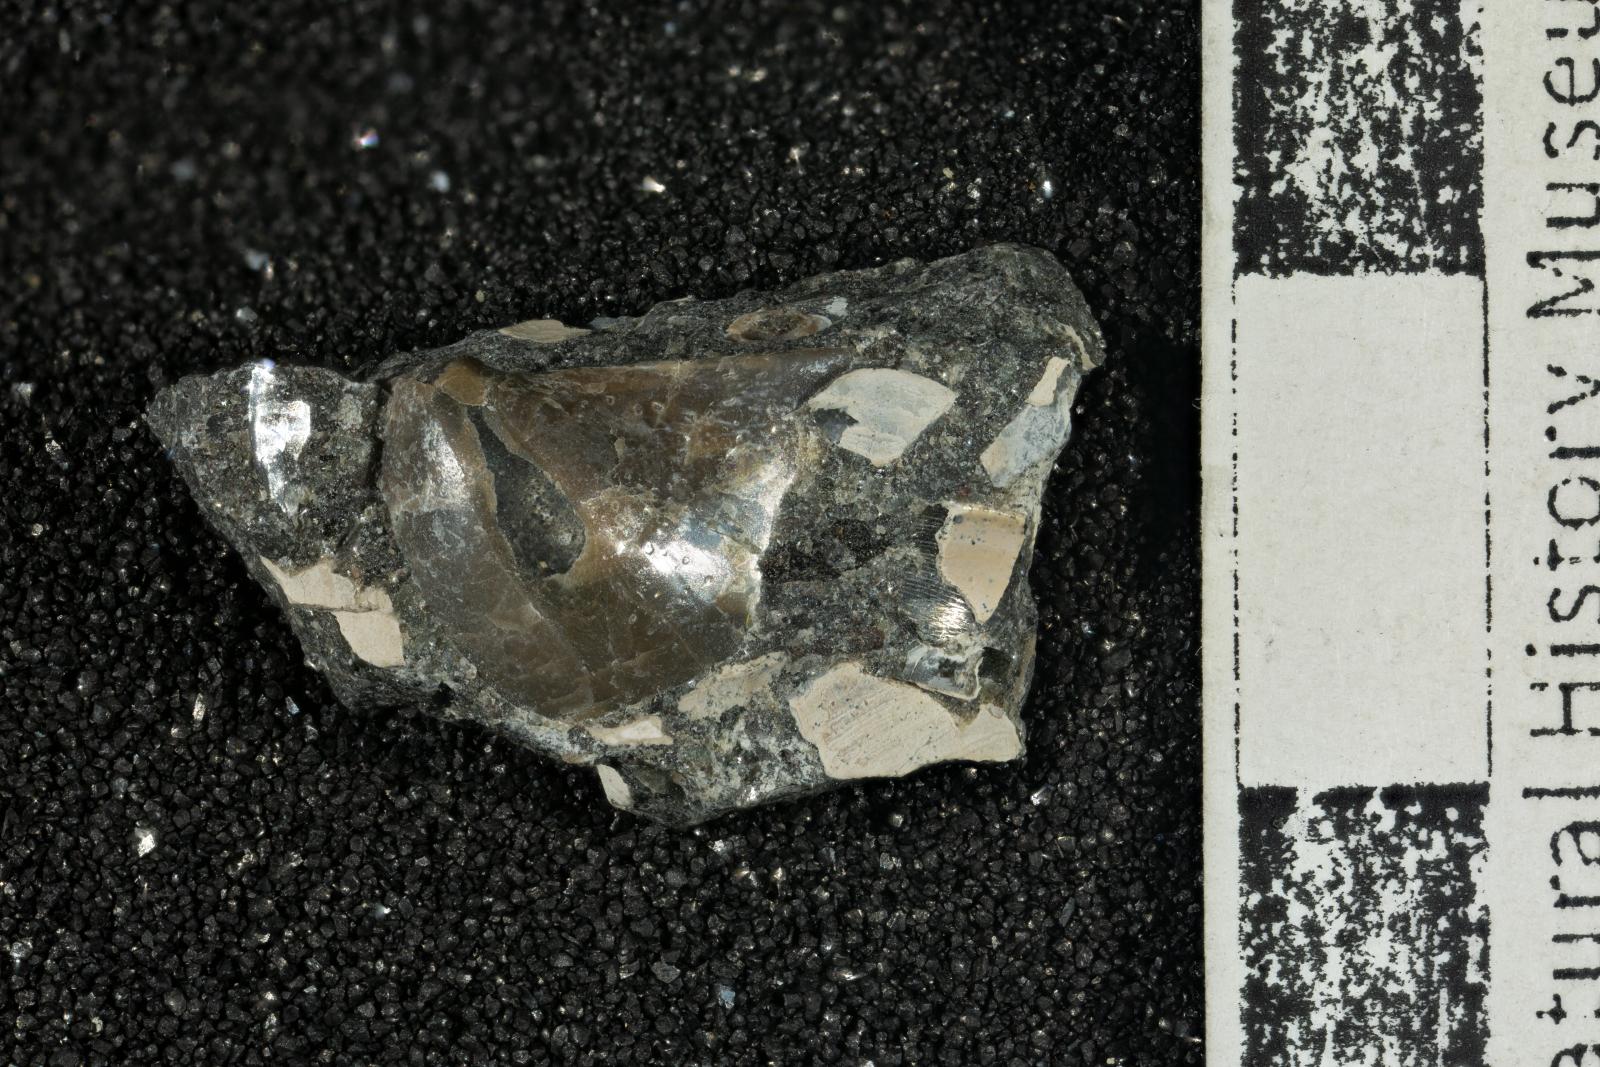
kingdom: Animalia
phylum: Mollusca
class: Bivalvia
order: Ostreida
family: Pteriidae
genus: Pteria
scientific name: Pteria pellucida
